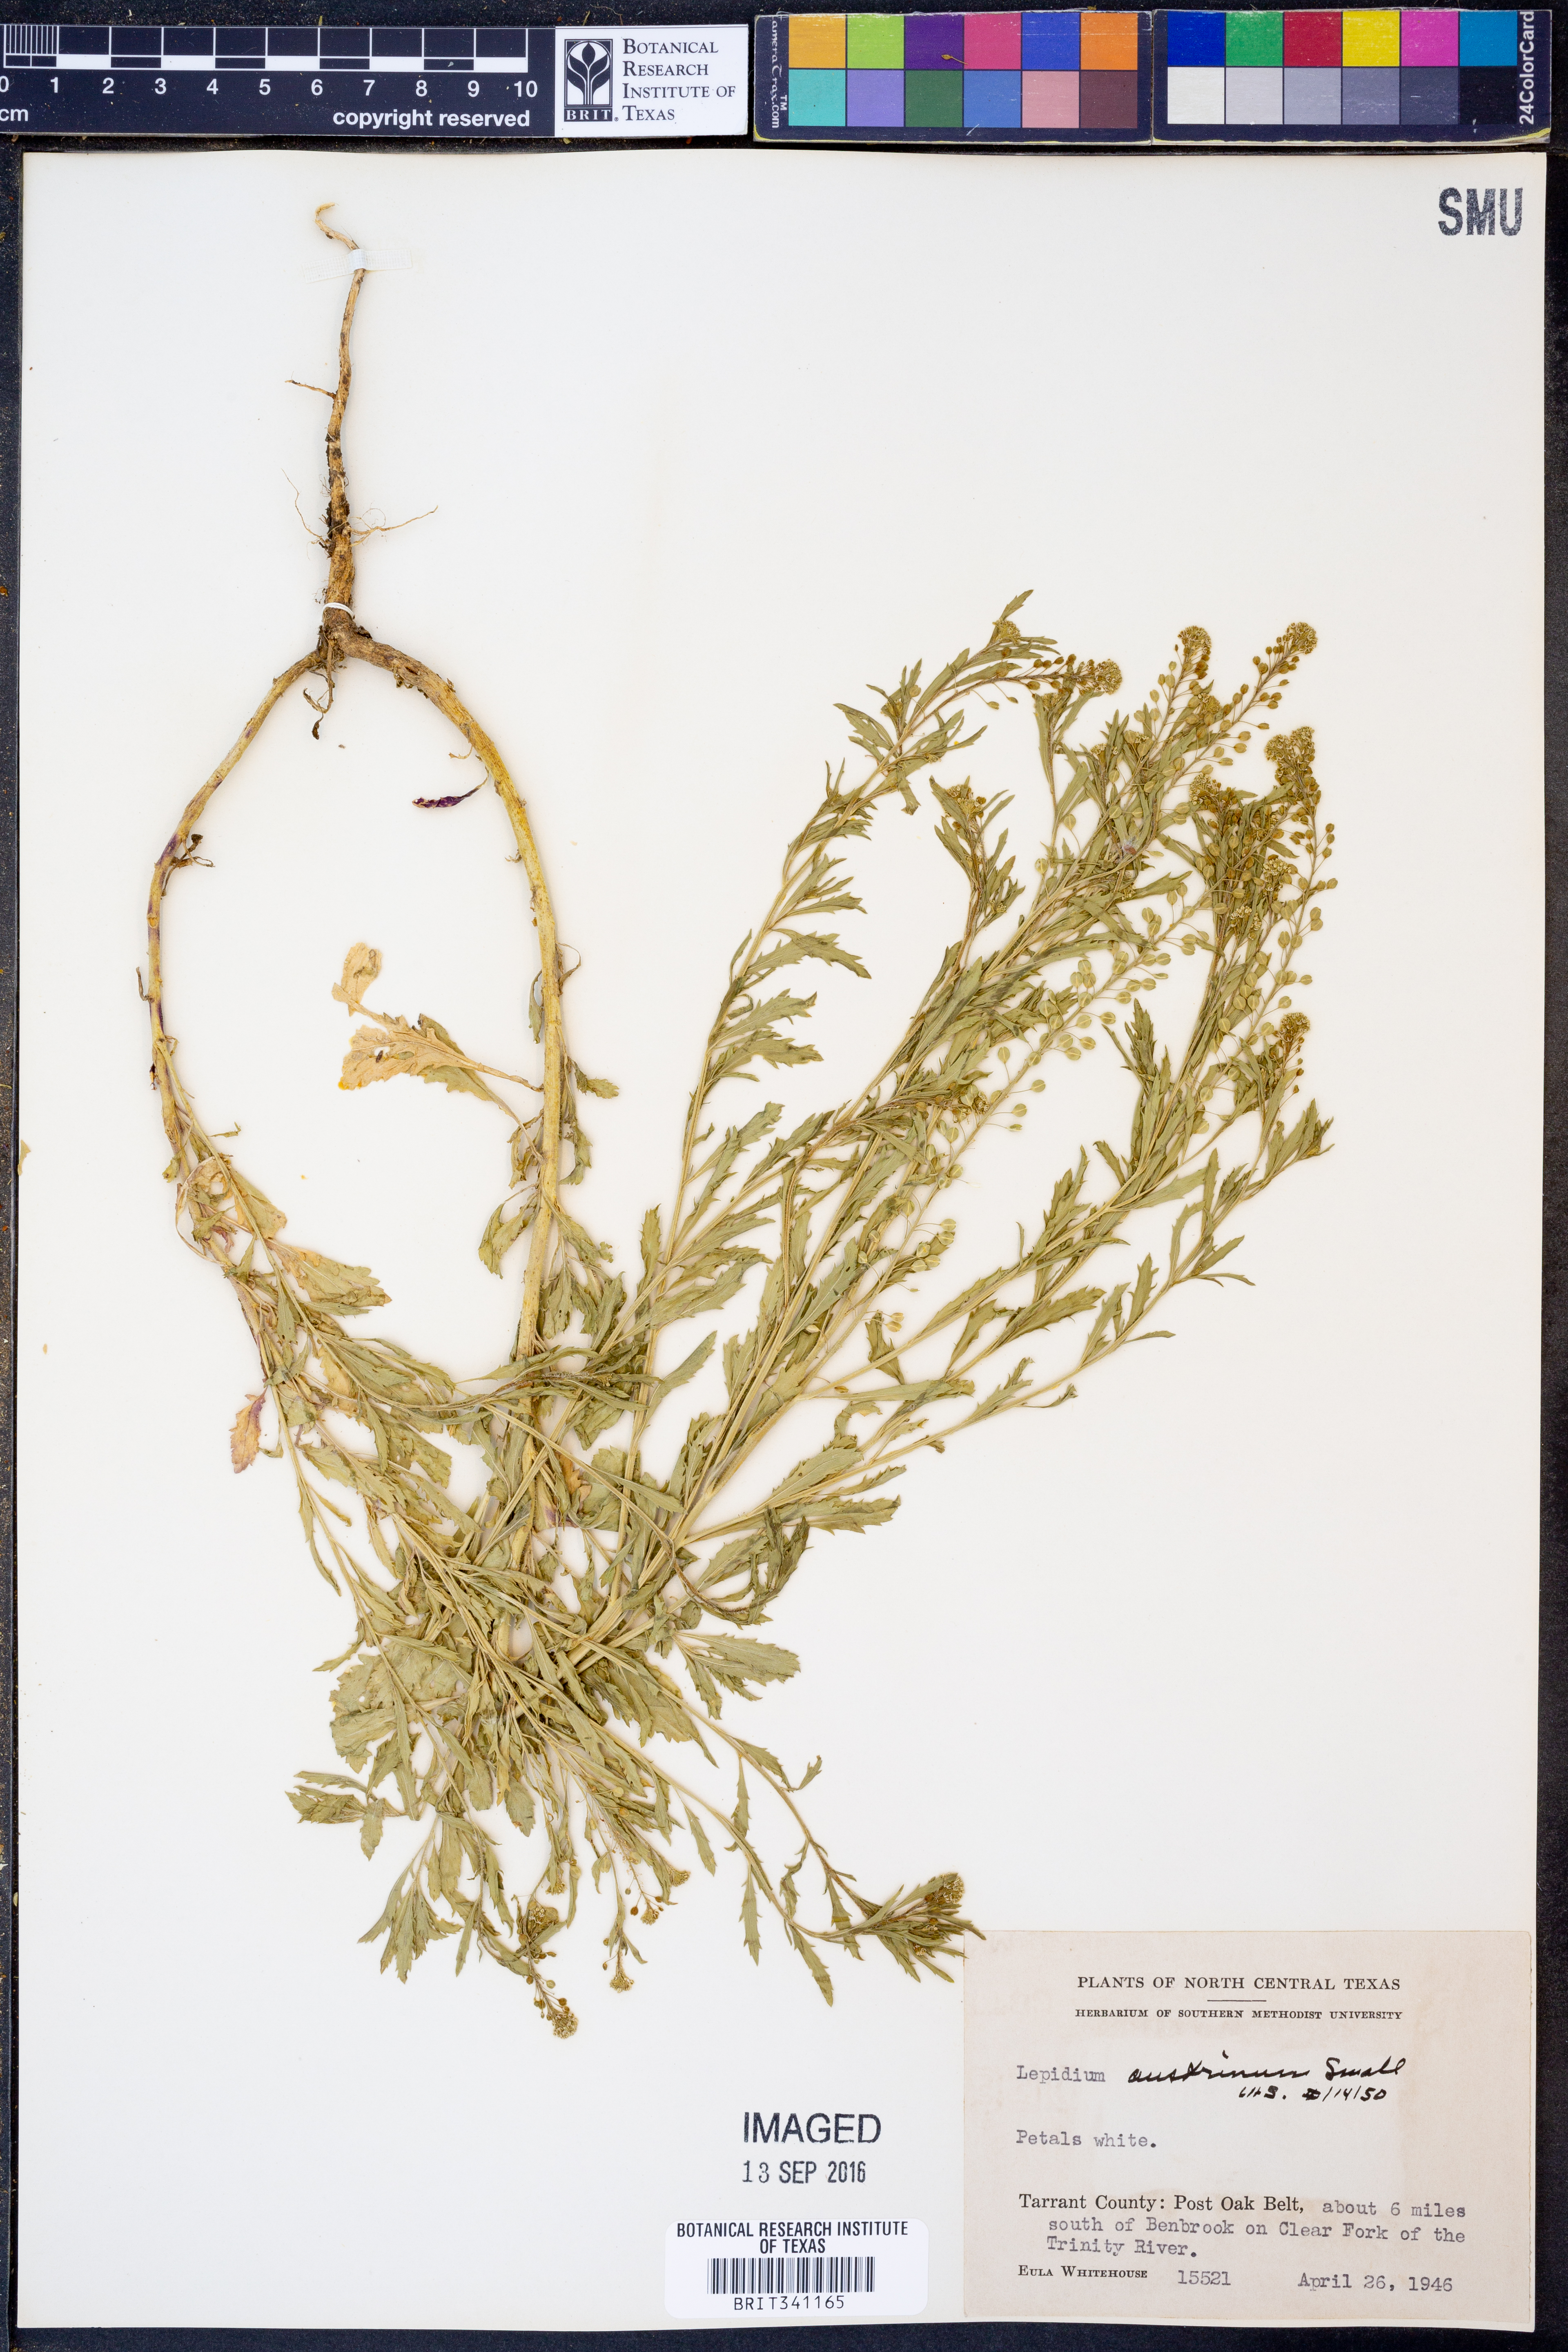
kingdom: Plantae
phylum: Tracheophyta
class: Magnoliopsida
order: Brassicales
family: Brassicaceae
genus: Lepidium
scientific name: Lepidium austrinum
